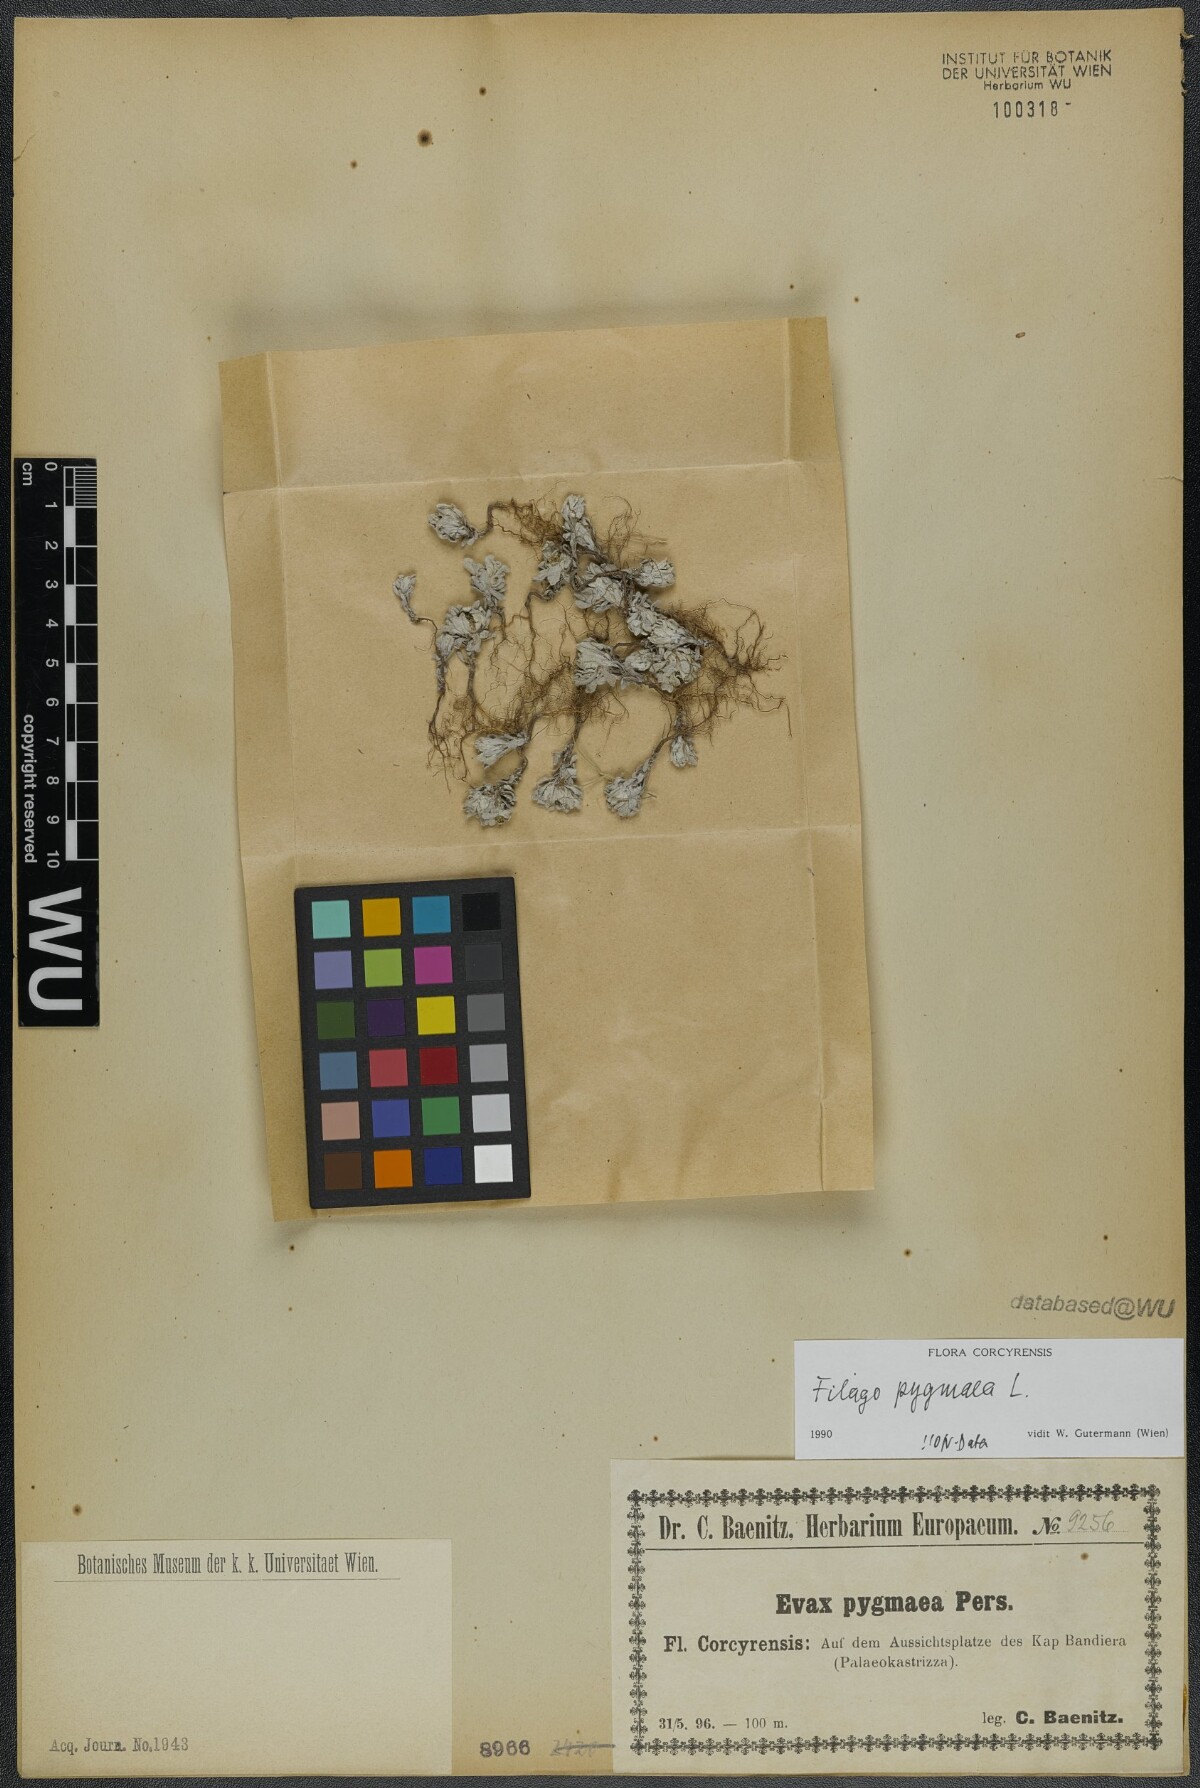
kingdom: Plantae
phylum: Tracheophyta
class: Magnoliopsida
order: Asterales
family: Asteraceae
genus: Filago
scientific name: Filago pygmaea
